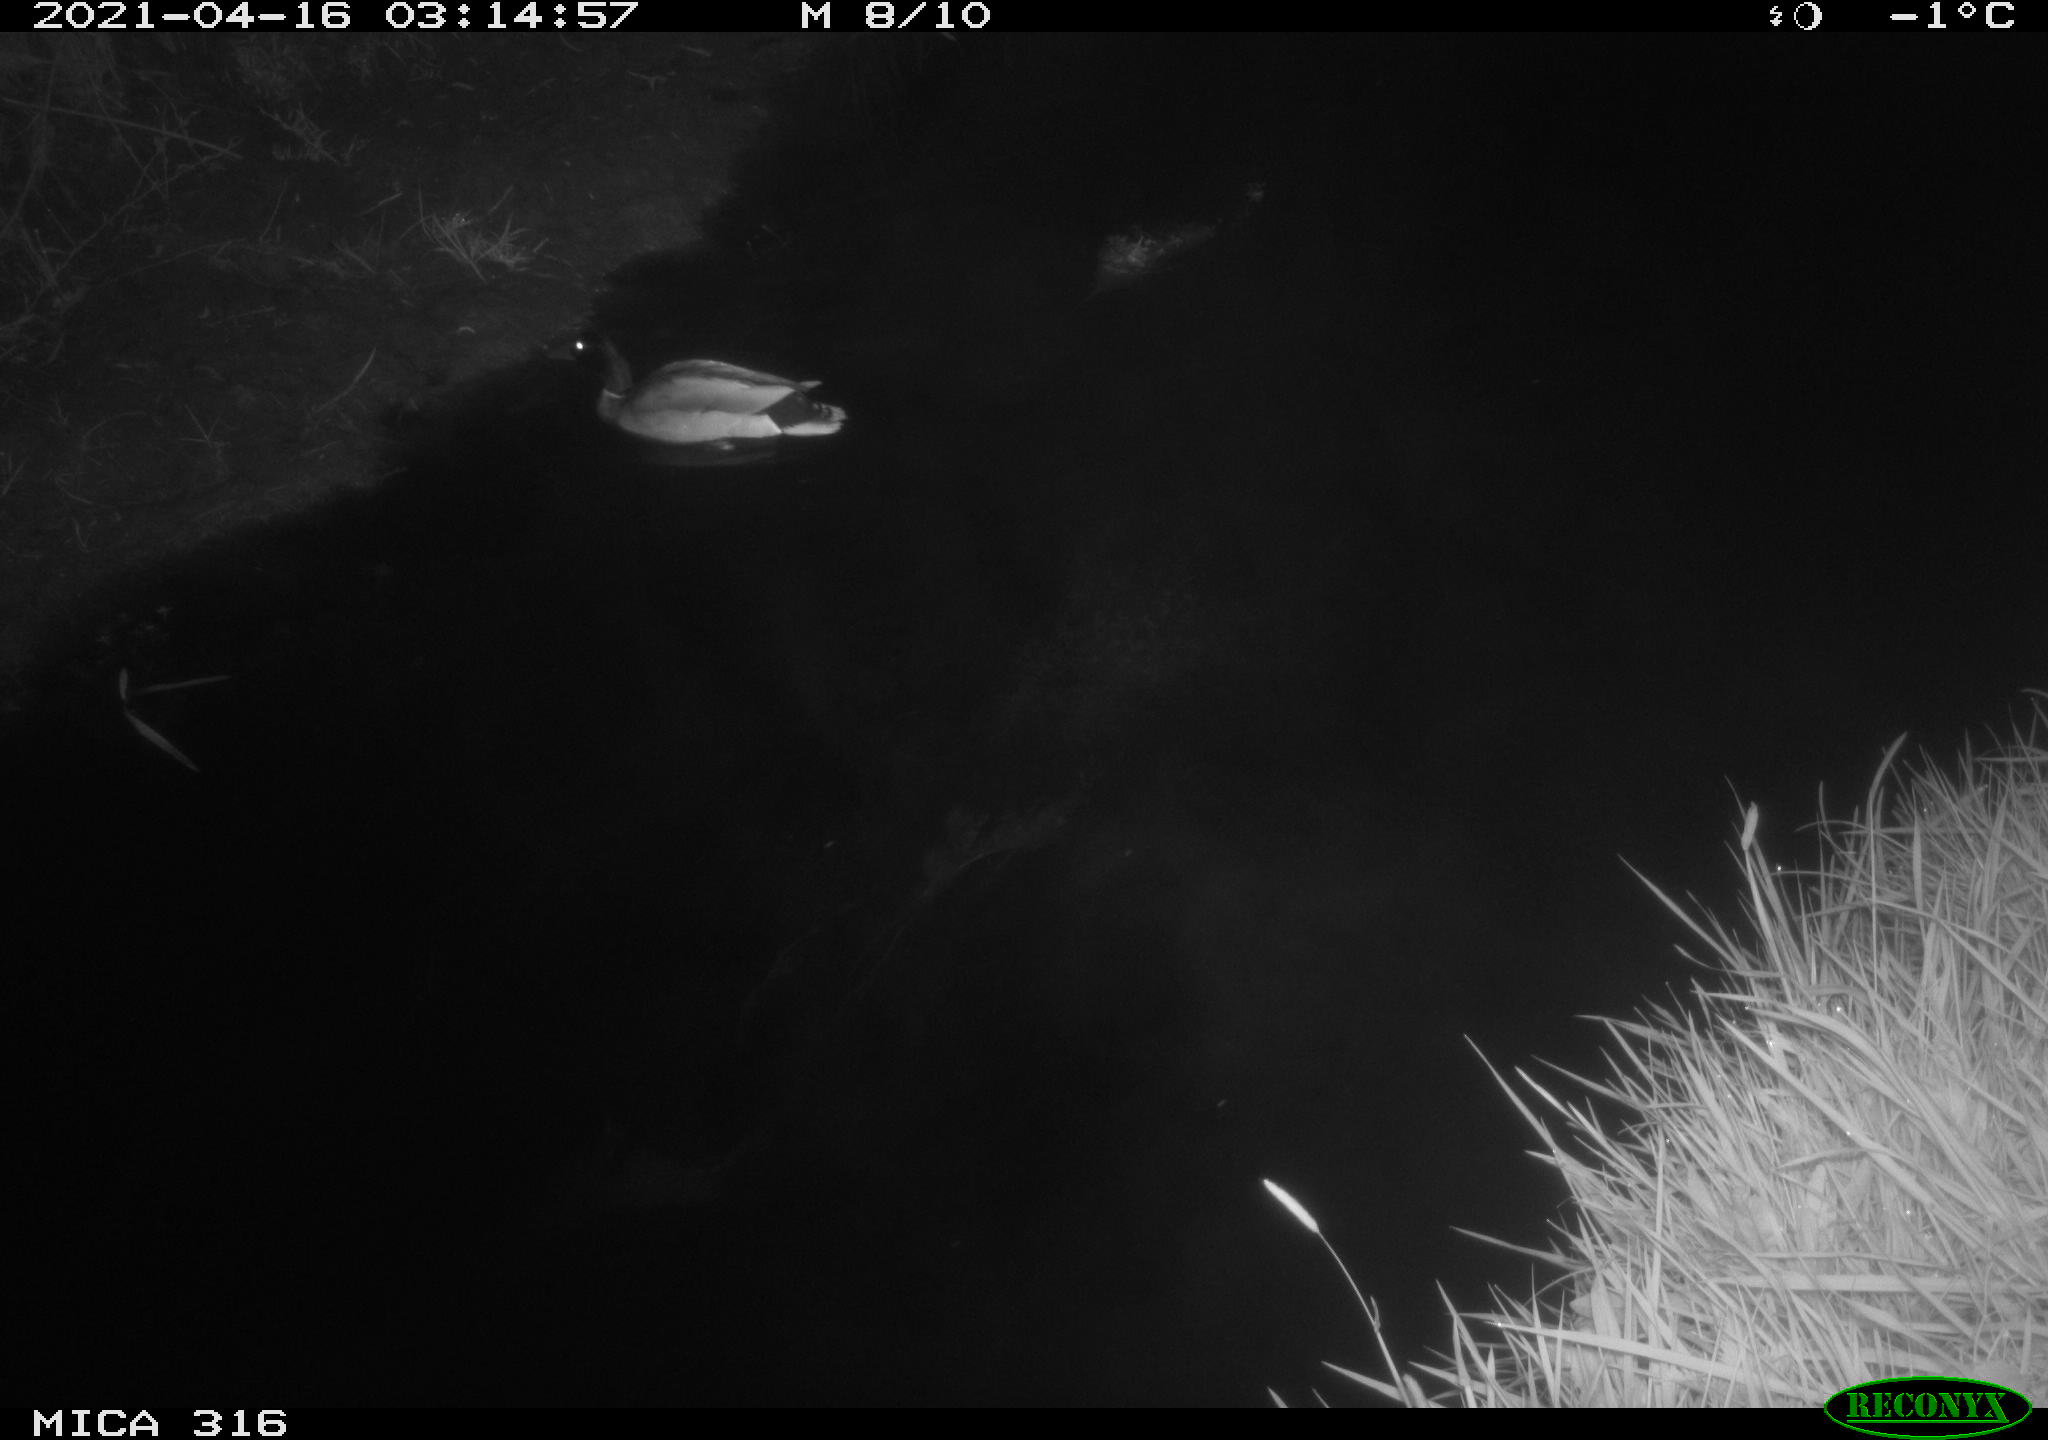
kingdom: Animalia
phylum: Chordata
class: Aves
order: Anseriformes
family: Anatidae
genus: Anas
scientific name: Anas platyrhynchos
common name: Mallard
